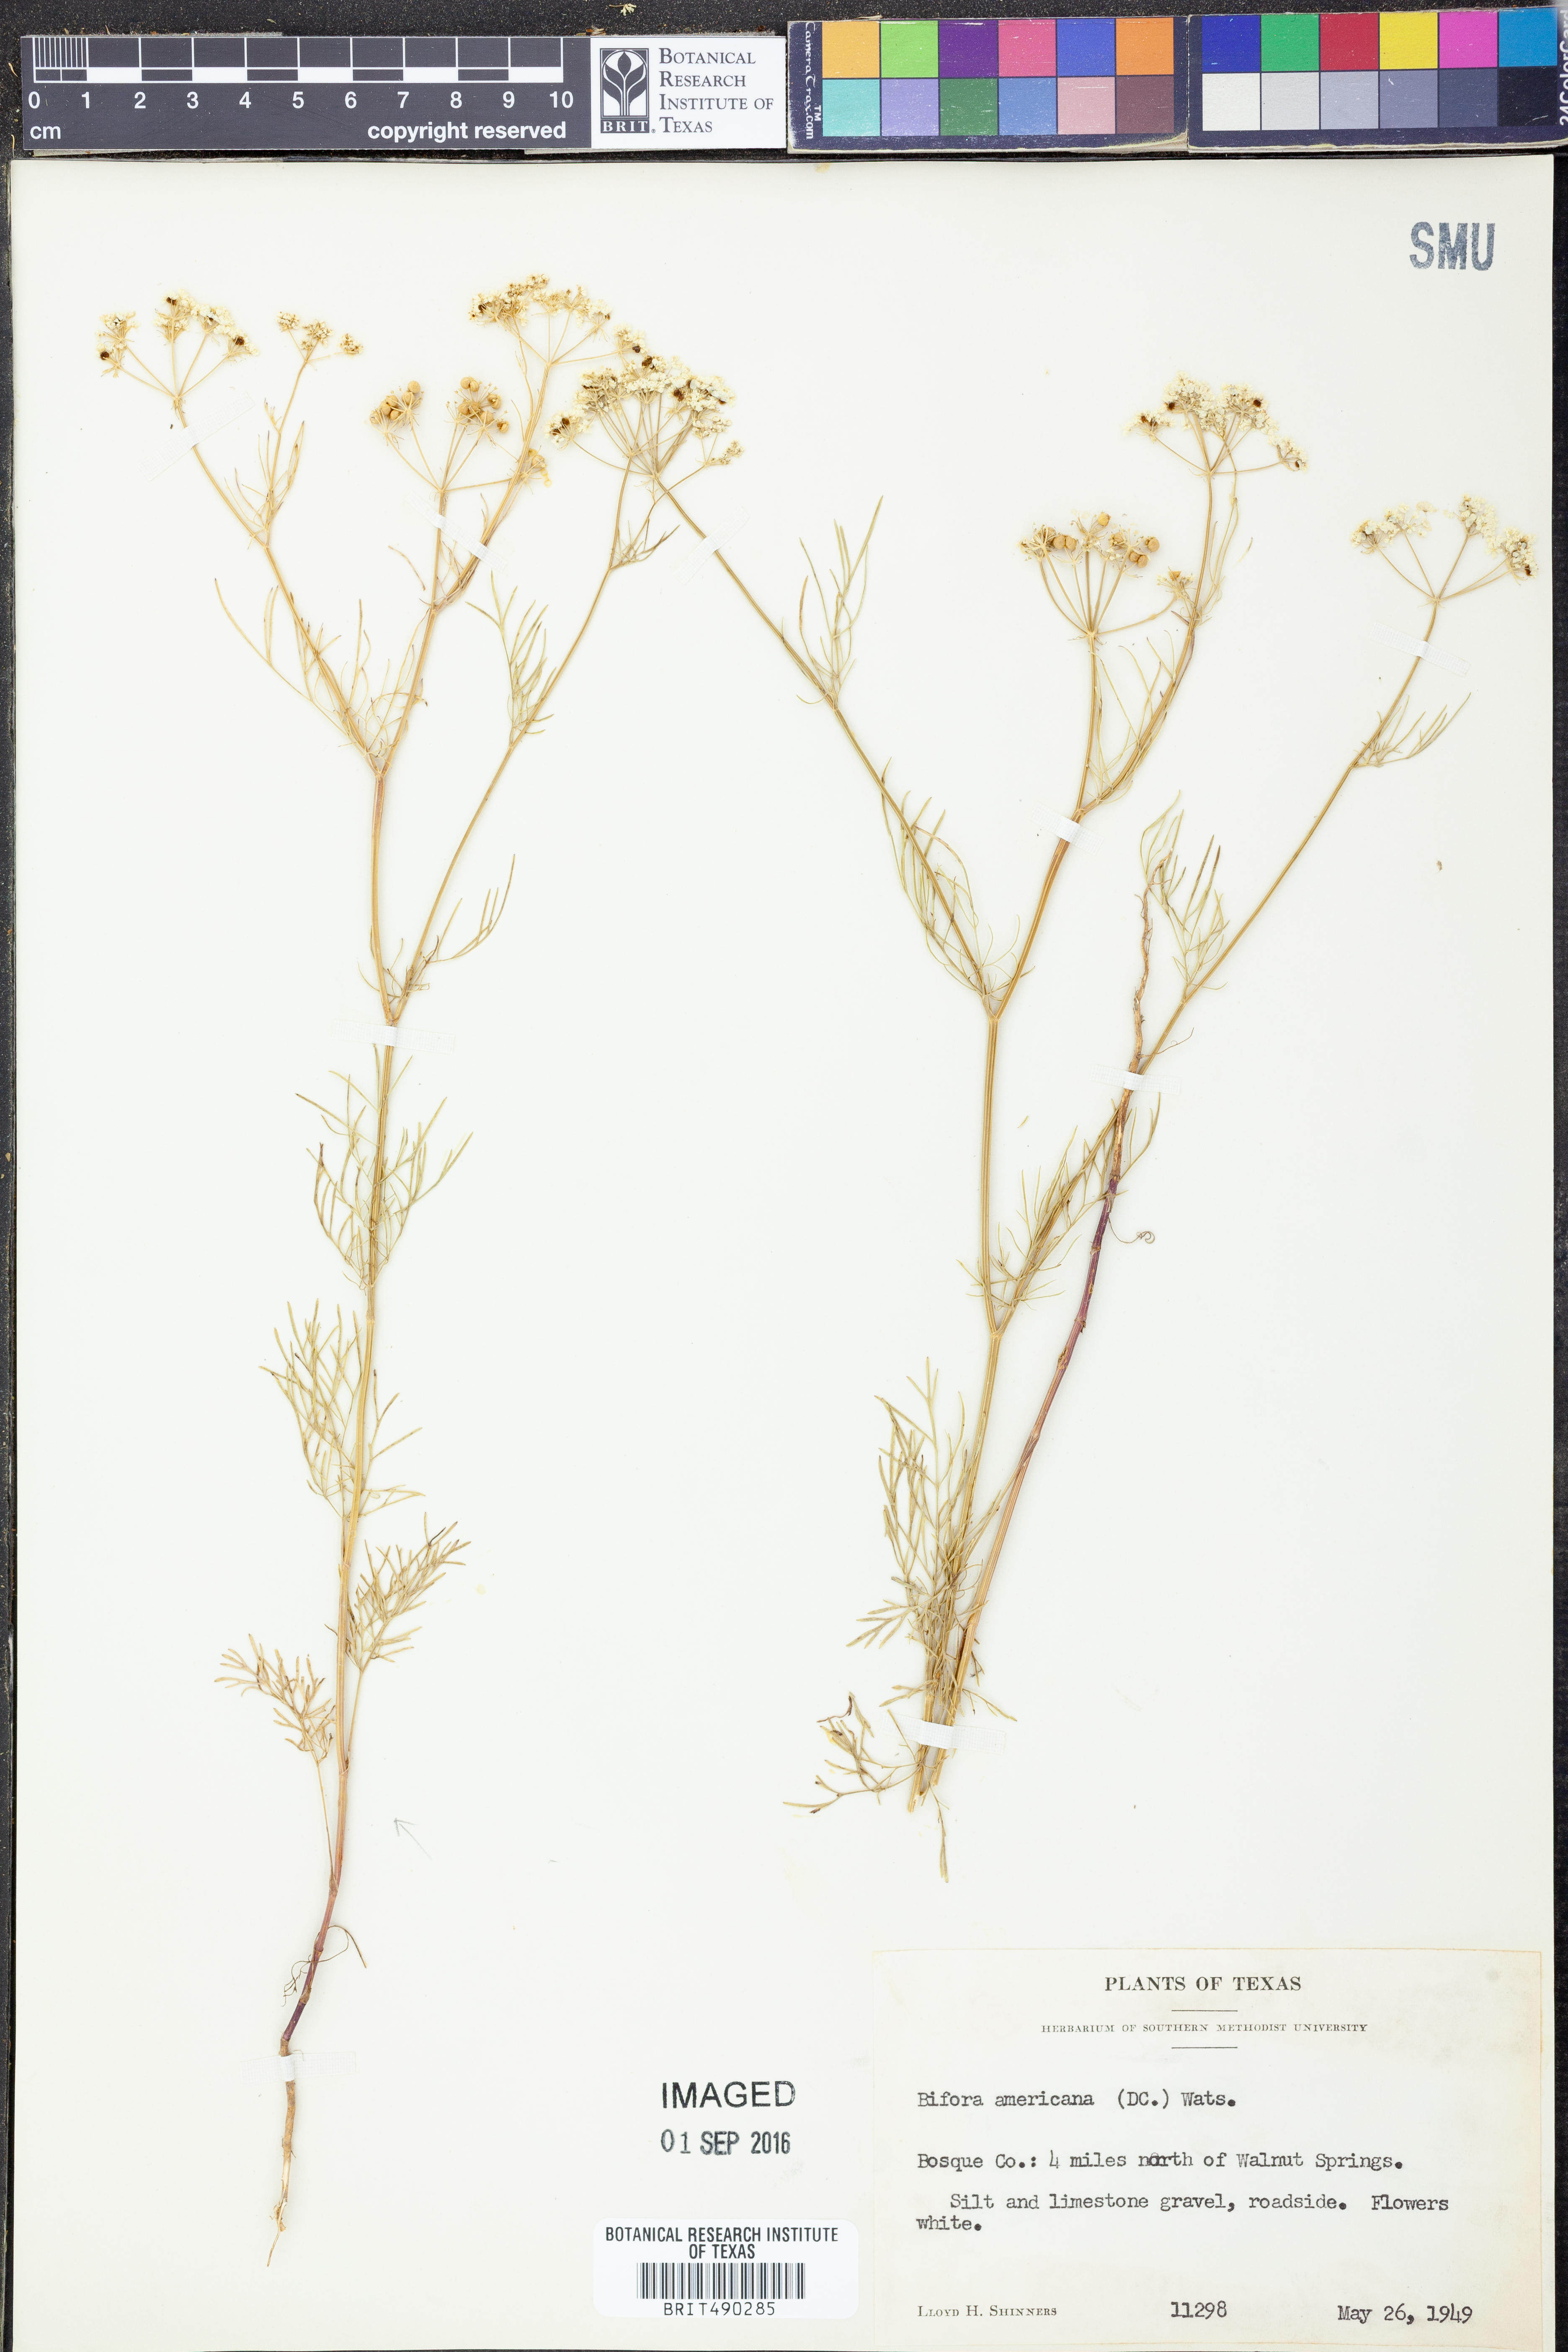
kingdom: Plantae
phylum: Tracheophyta
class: Magnoliopsida
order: Apiales
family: Apiaceae
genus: Atrema
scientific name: Atrema americanum
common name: Prairie-bishop
